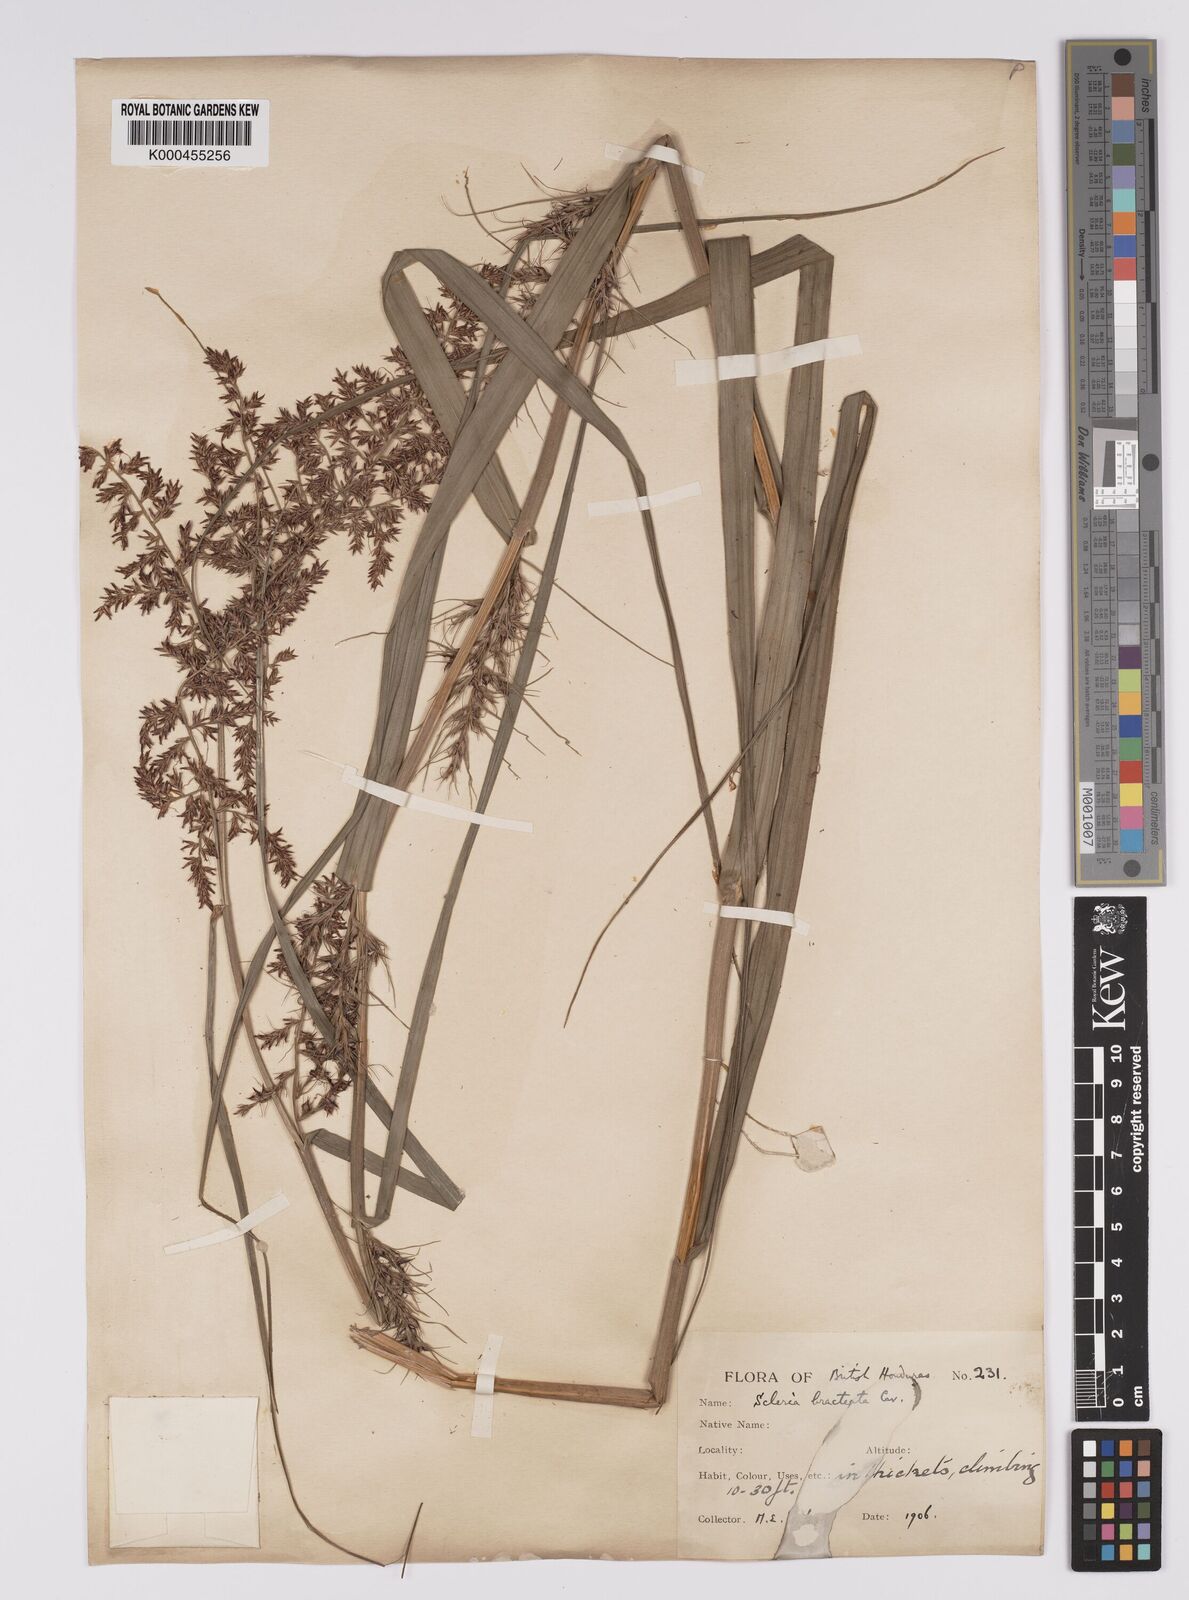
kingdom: Plantae
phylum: Tracheophyta
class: Liliopsida
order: Poales
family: Cyperaceae
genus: Scleria
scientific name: Scleria bracteata
